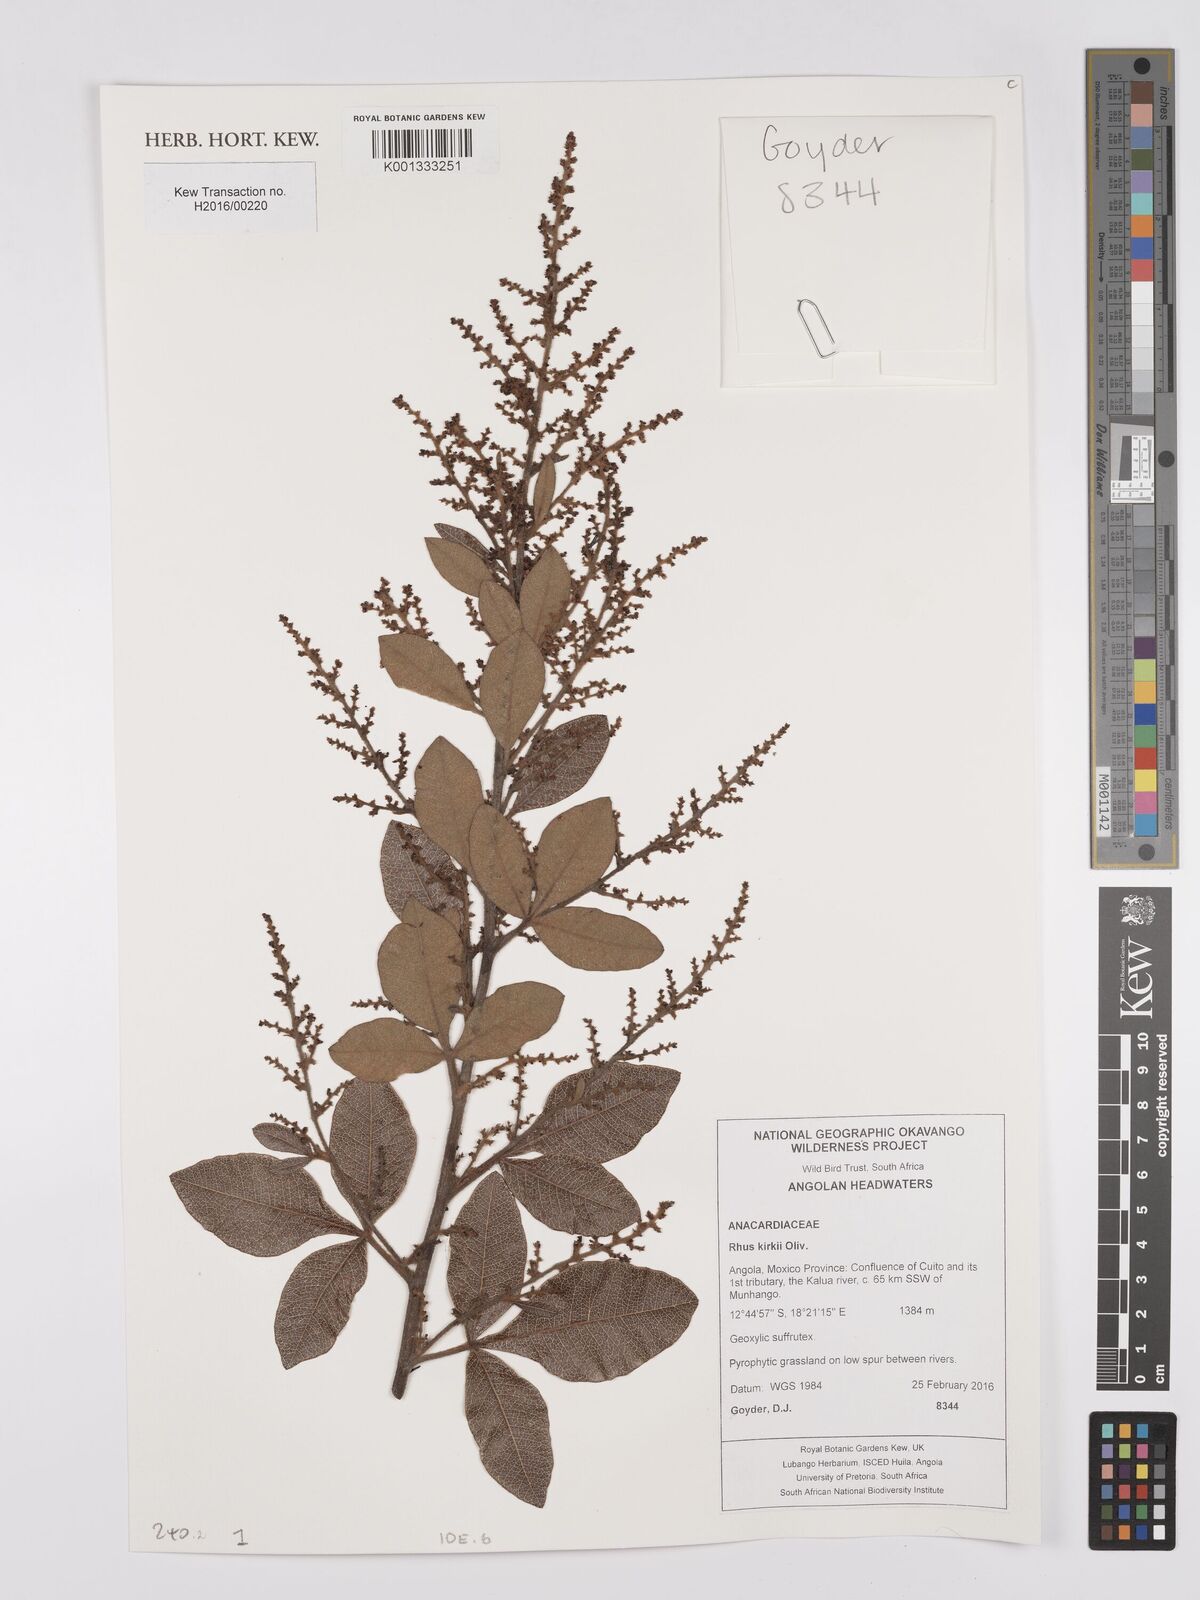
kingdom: Plantae
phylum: Tracheophyta
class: Magnoliopsida
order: Sapindales
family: Anacardiaceae
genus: Searsia
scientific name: Searsia kirkii
